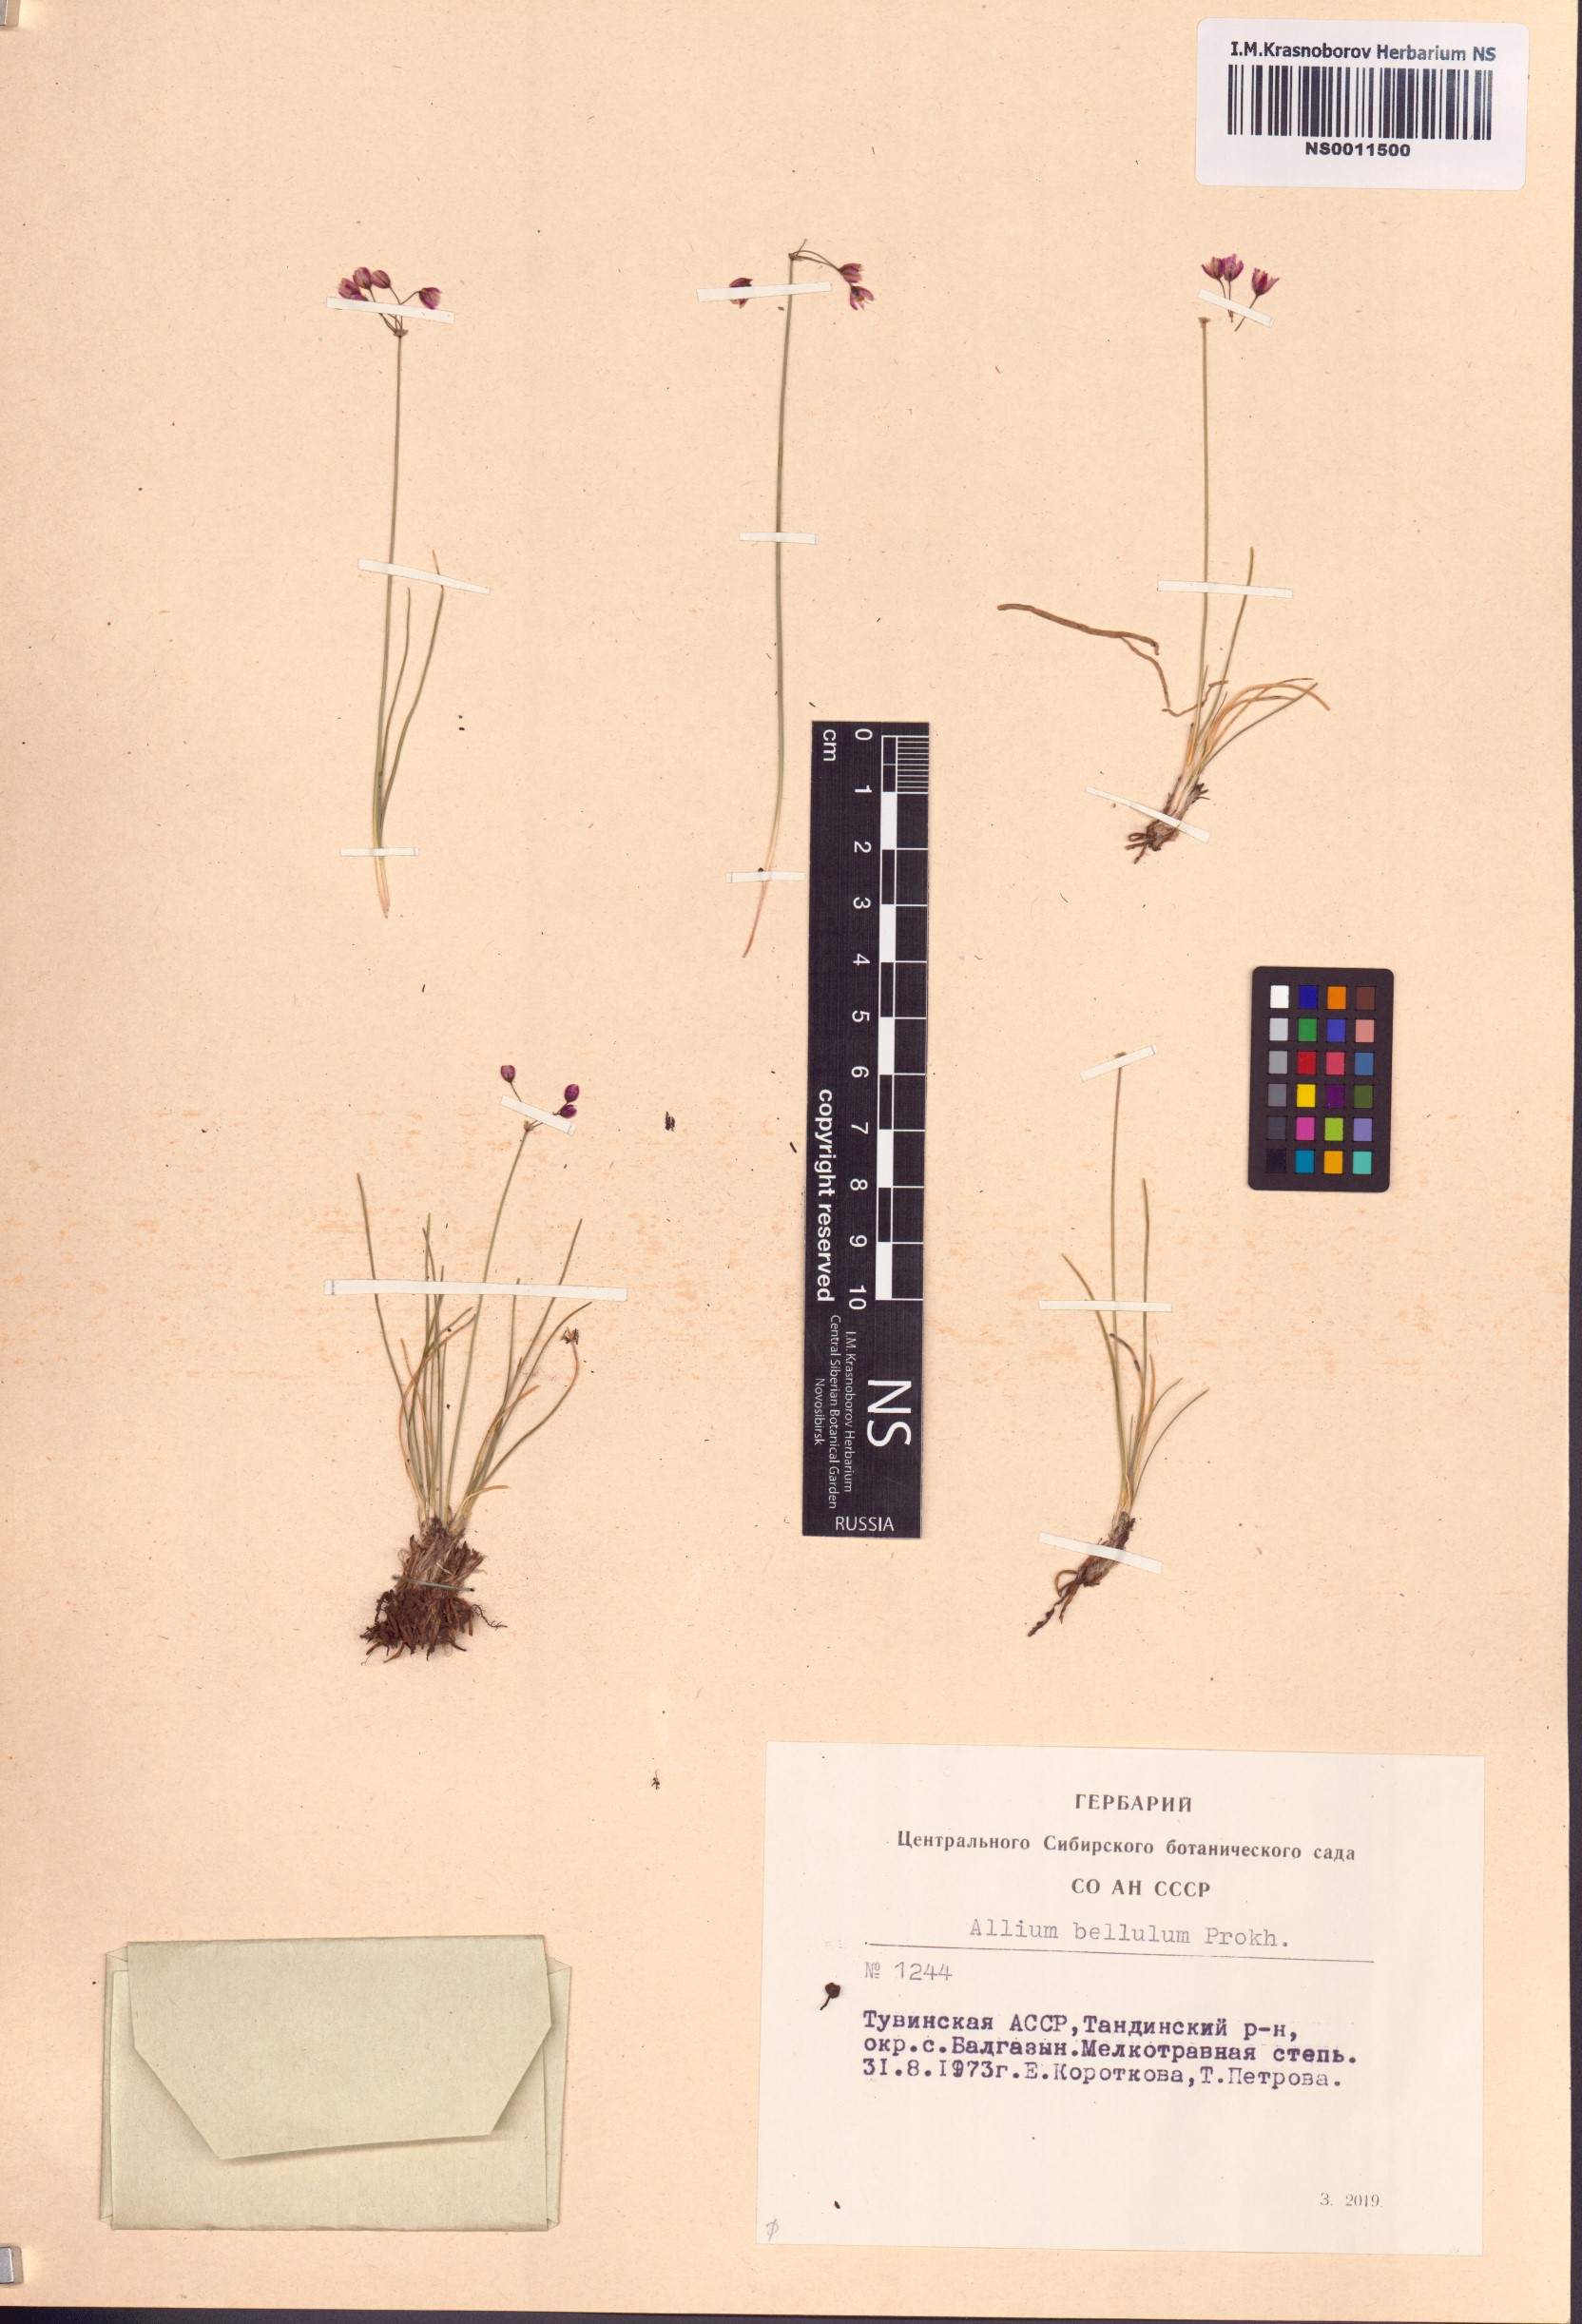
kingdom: Plantae
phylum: Tracheophyta
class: Liliopsida
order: Asparagales
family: Amaryllidaceae
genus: Allium
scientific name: Allium bellulum
